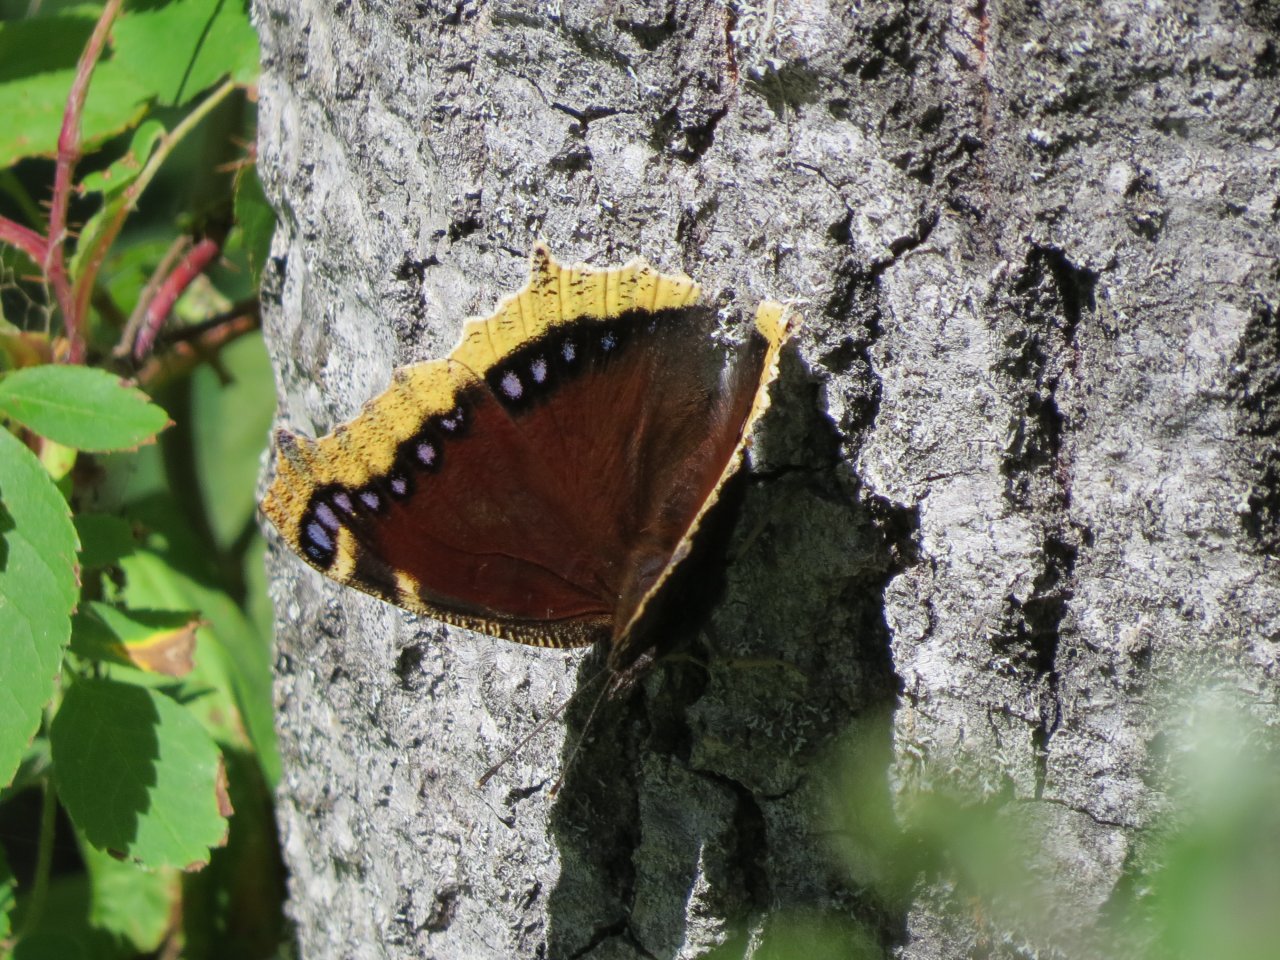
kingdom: Animalia
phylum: Arthropoda
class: Insecta
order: Lepidoptera
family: Nymphalidae
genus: Nymphalis
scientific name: Nymphalis antiopa
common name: Mourning Cloak
